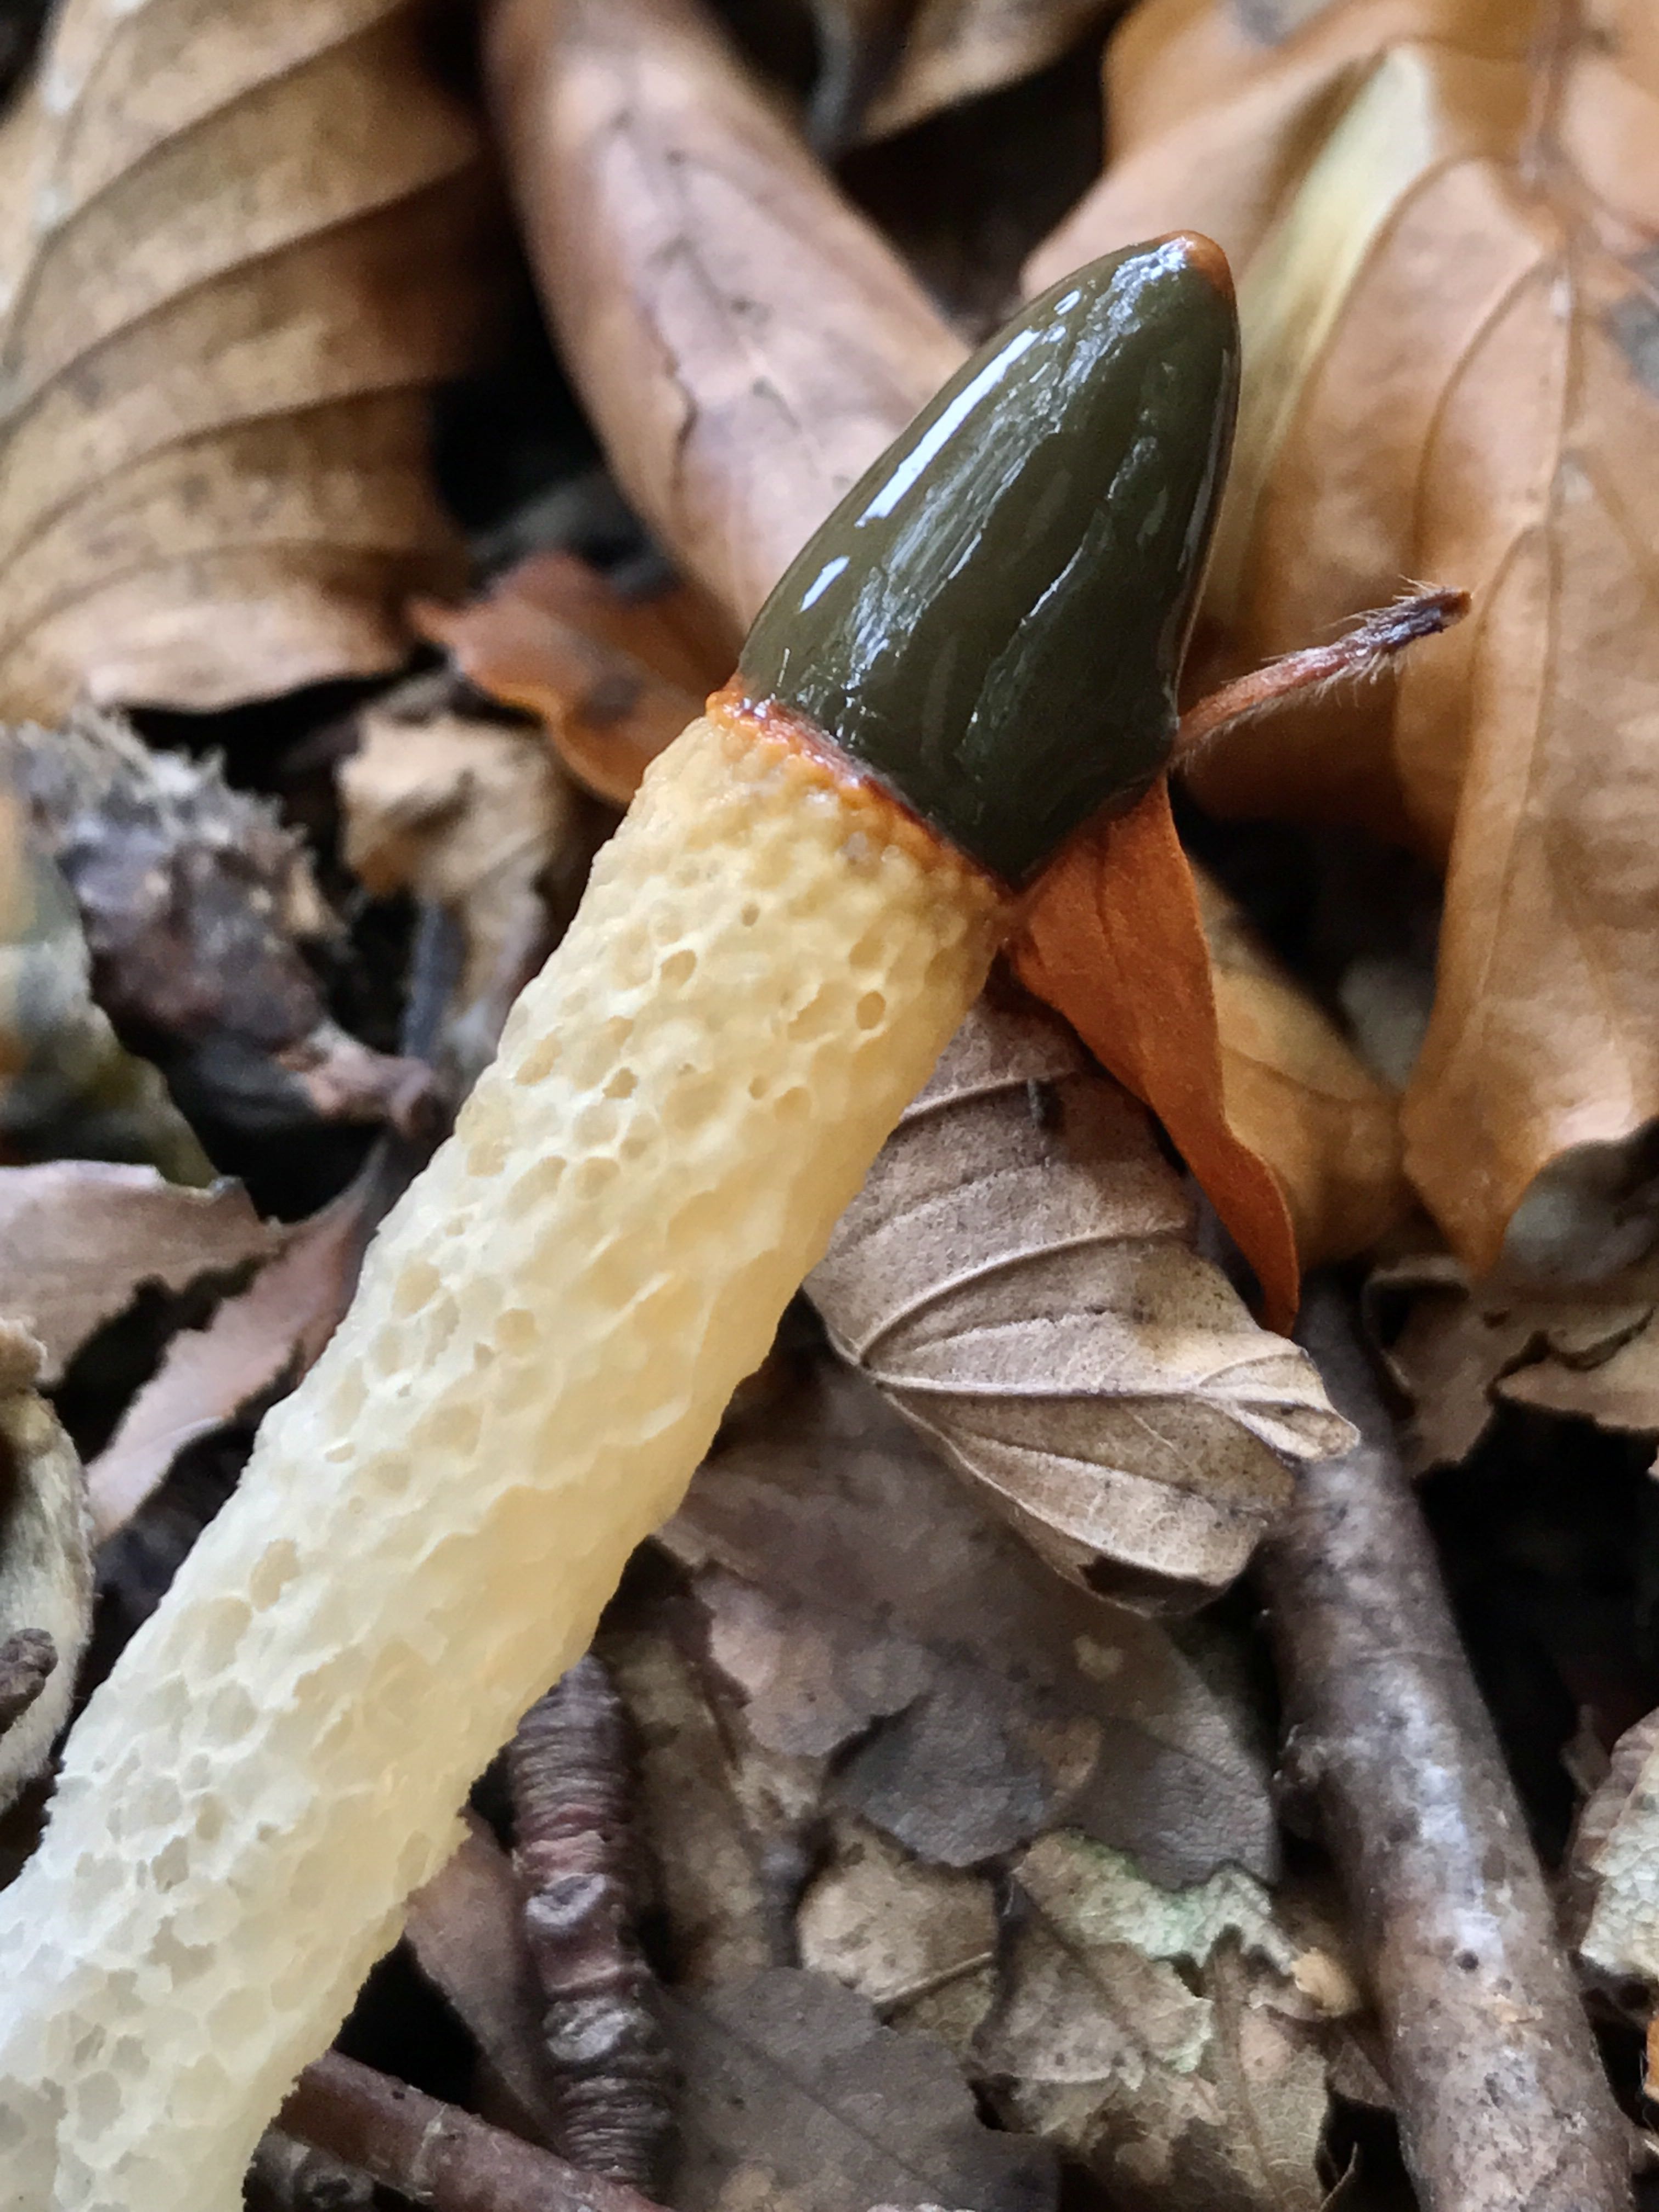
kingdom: Fungi
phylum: Basidiomycota
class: Agaricomycetes
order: Phallales
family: Phallaceae
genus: Mutinus
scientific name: Mutinus caninus
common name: hunde-stinksvamp
